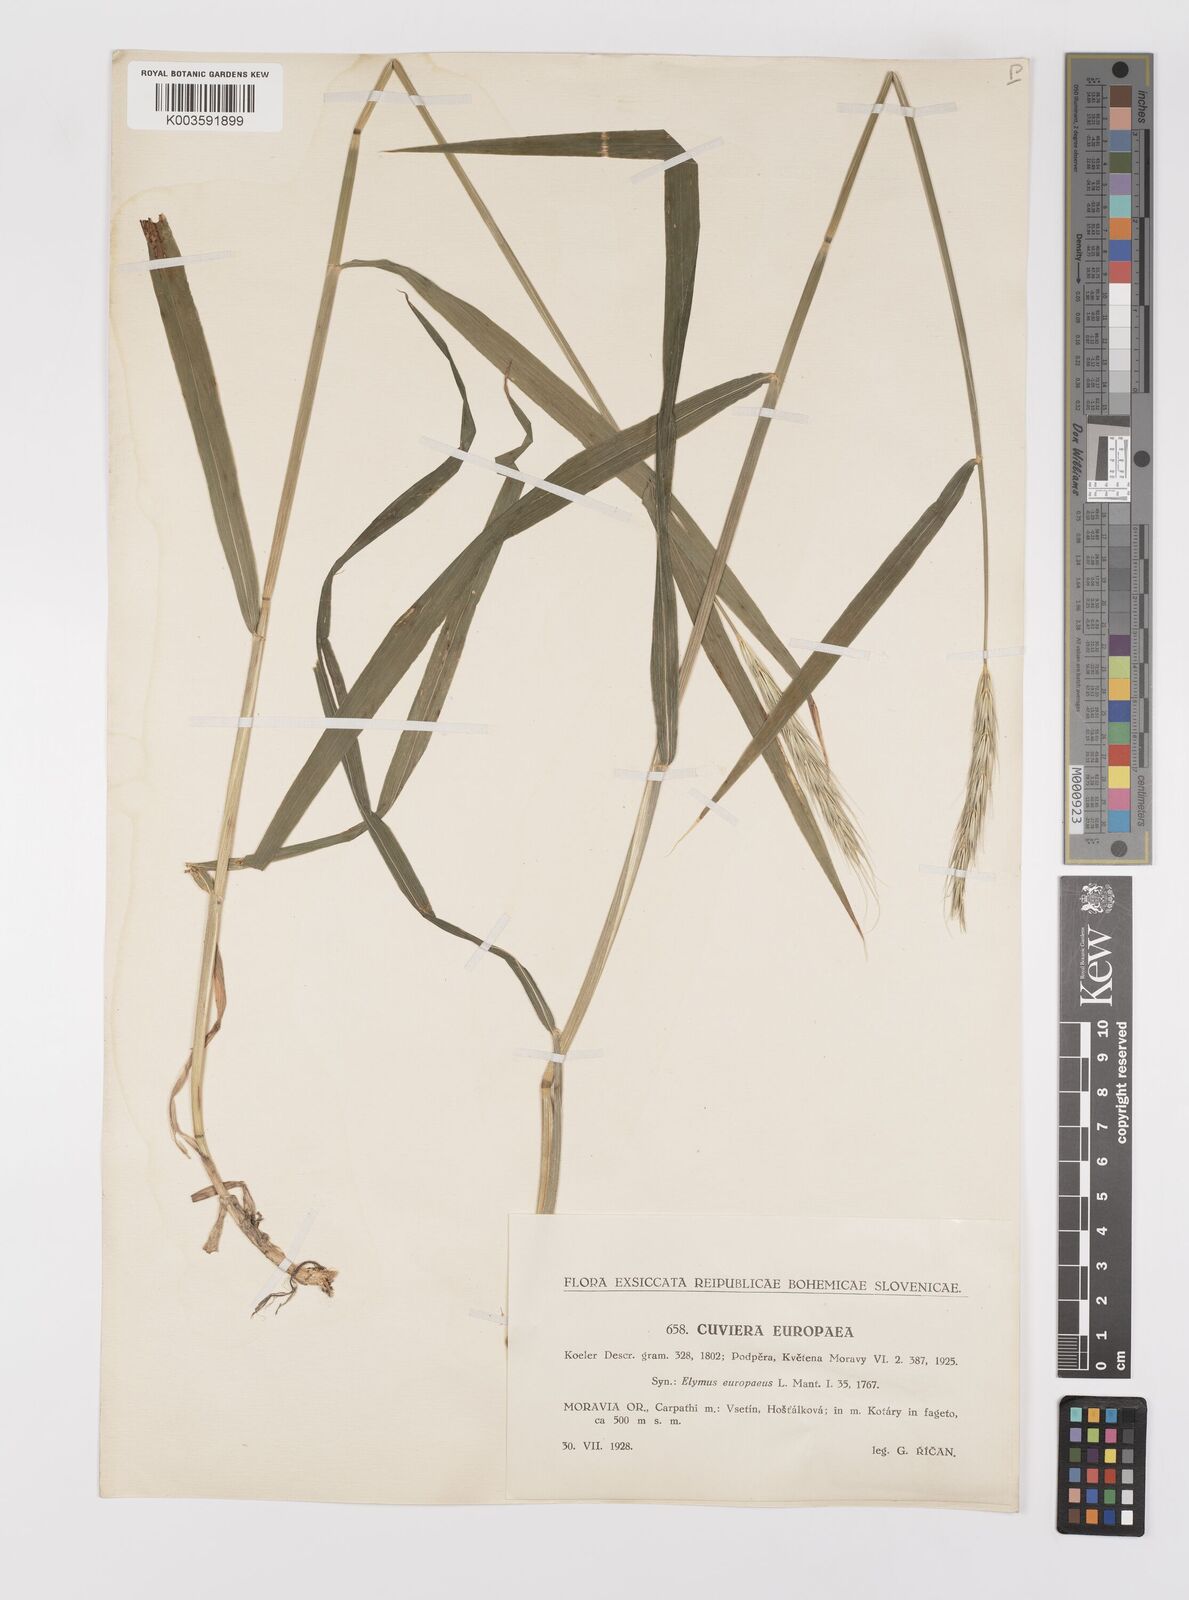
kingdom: Plantae
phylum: Tracheophyta
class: Liliopsida
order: Poales
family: Poaceae
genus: Hordelymus
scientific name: Hordelymus europaeus
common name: Wood-barley
